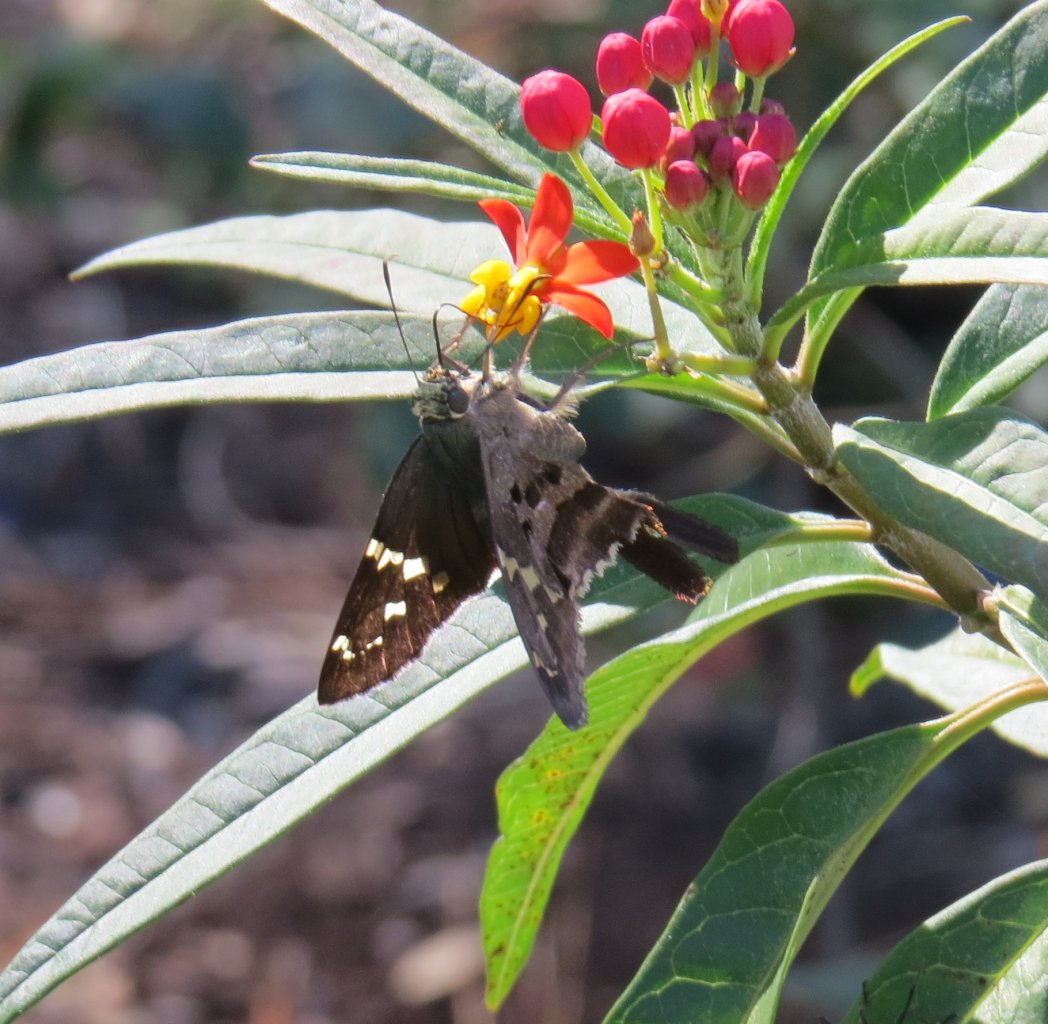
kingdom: Animalia
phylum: Arthropoda
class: Insecta
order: Lepidoptera
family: Hesperiidae
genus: Urbanus
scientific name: Urbanus proteus
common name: Long-tailed Skipper
